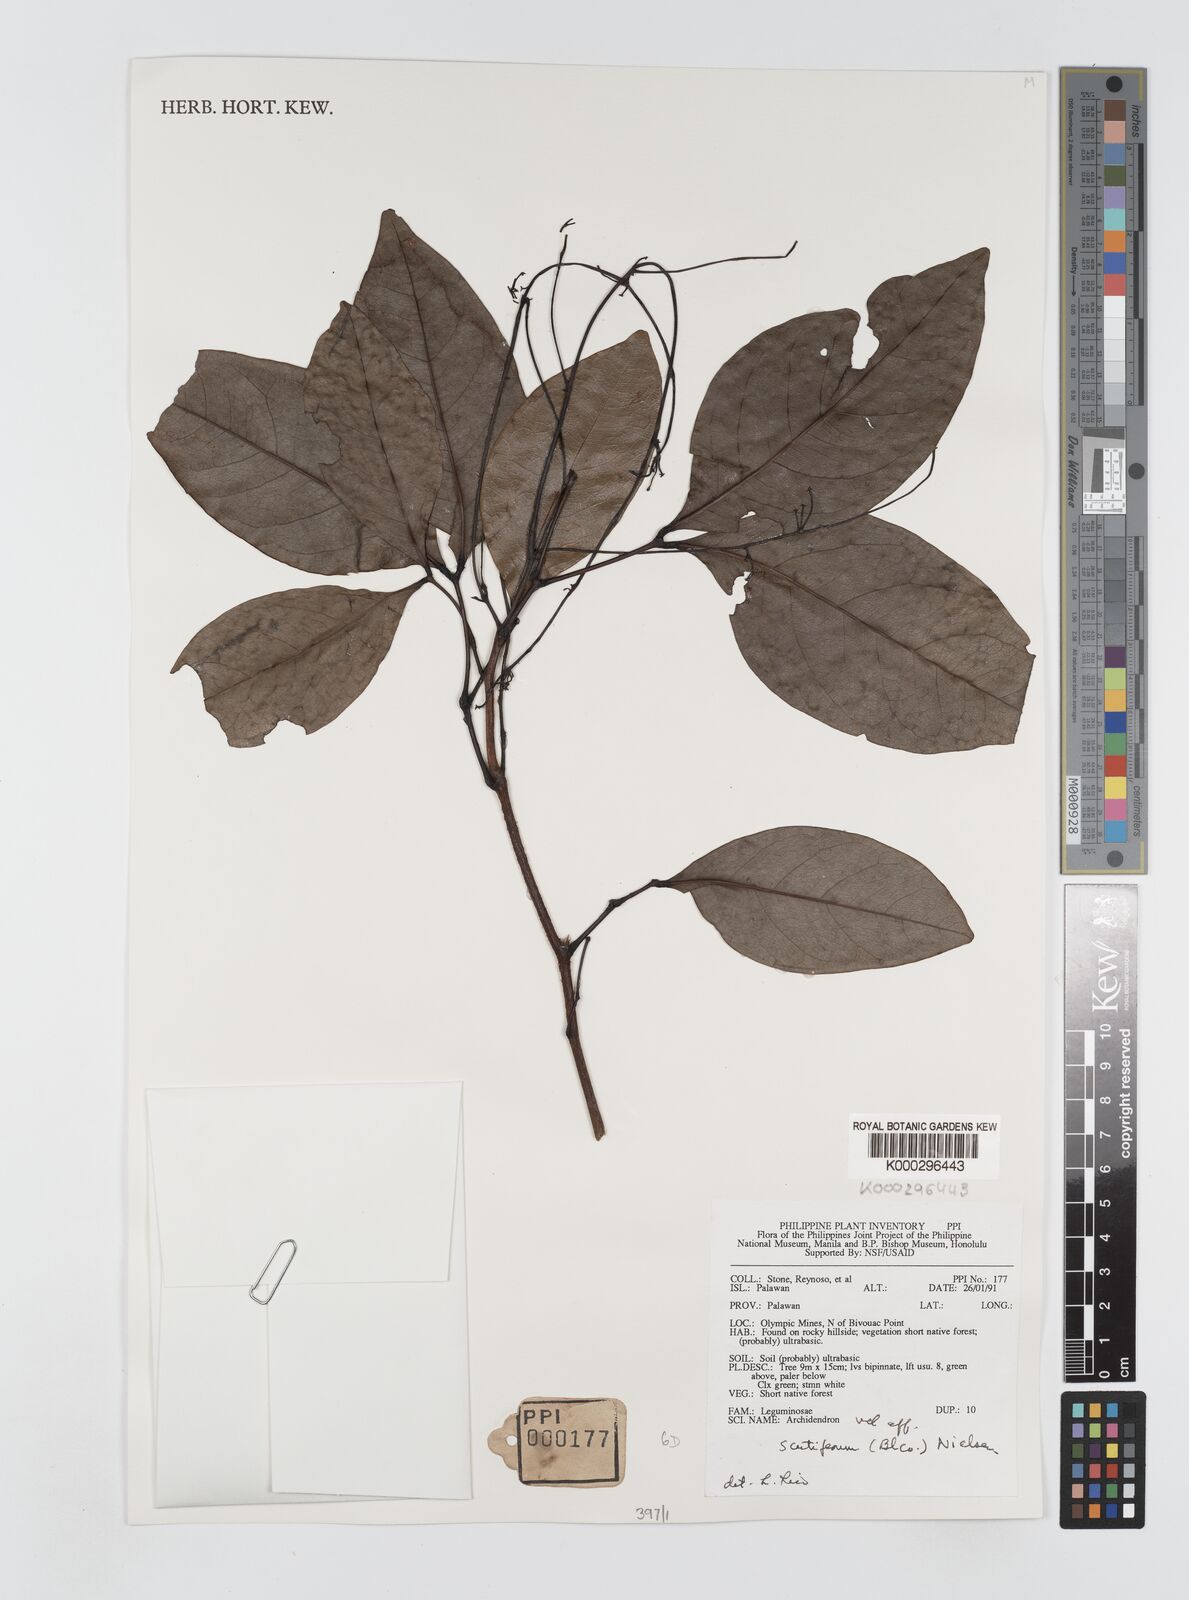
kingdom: Plantae
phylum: Tracheophyta
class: Magnoliopsida
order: Fabales
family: Fabaceae
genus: Archidendron
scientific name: Archidendron scutiferum
